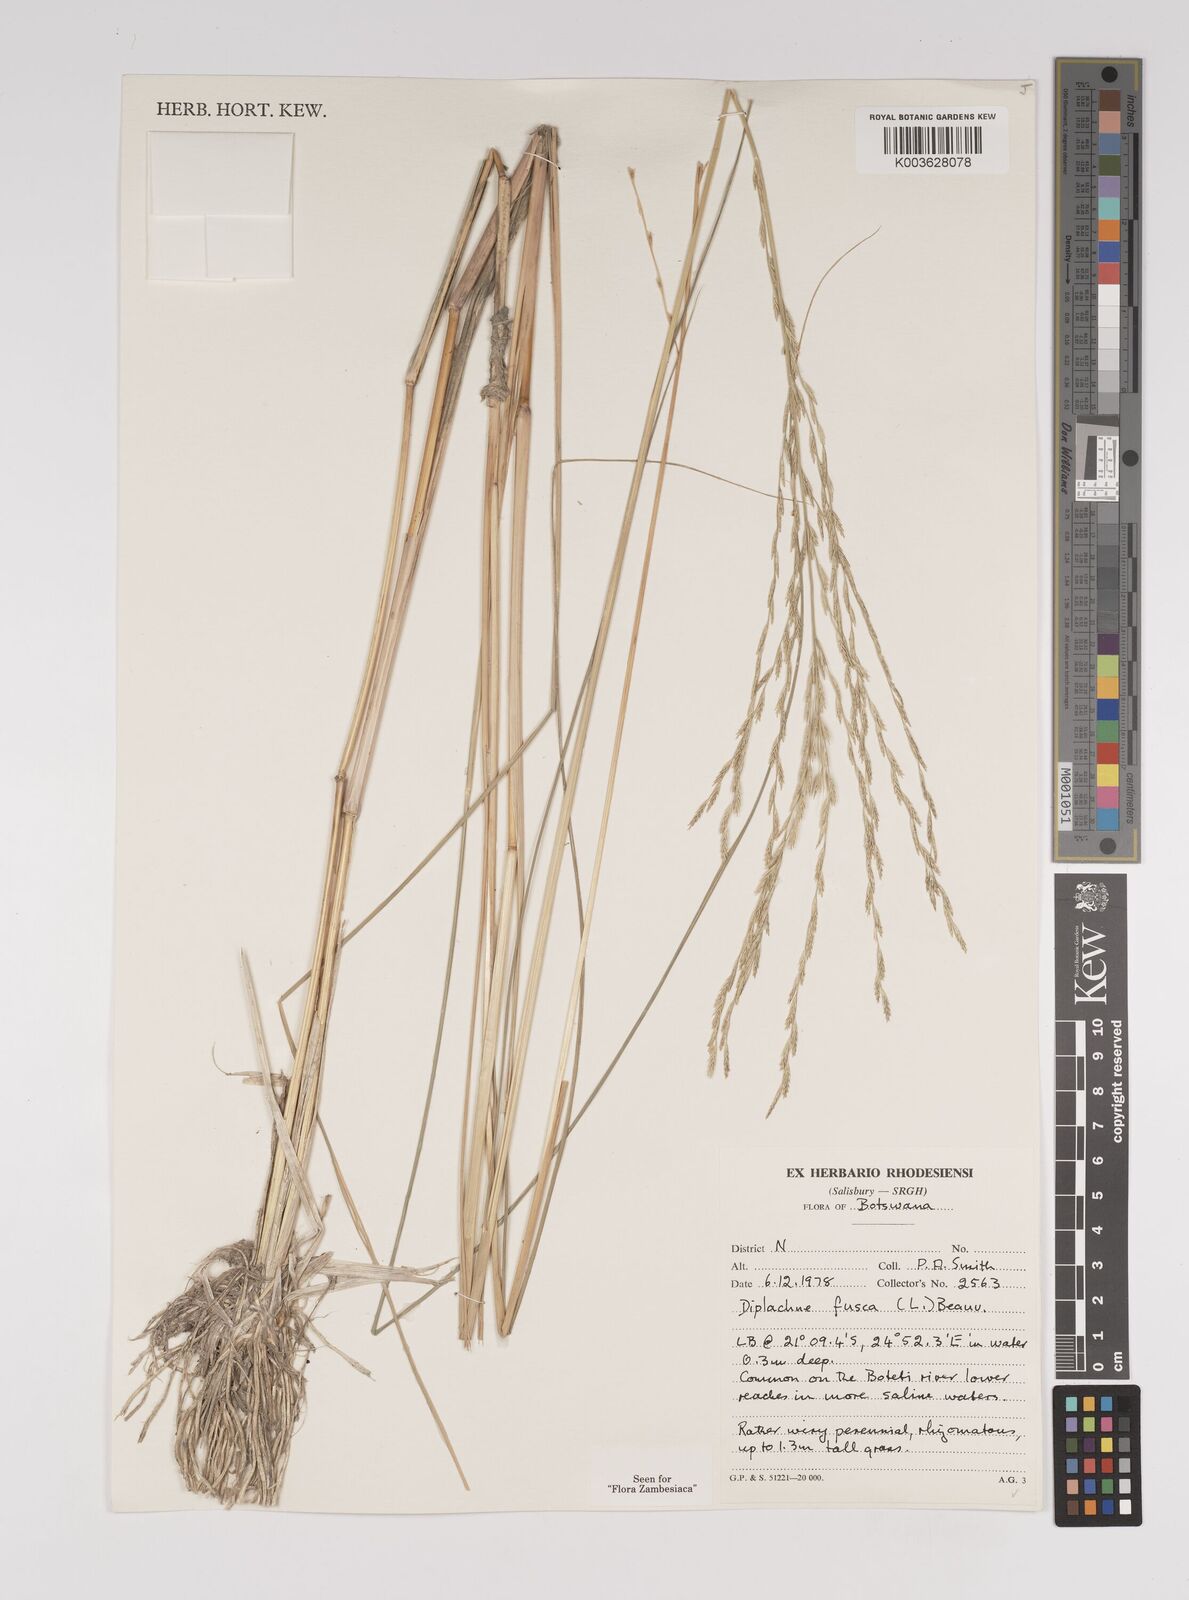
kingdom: Plantae
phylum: Tracheophyta
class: Liliopsida
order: Poales
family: Poaceae
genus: Diplachne
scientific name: Diplachne fusca
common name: Brown beetle grass
